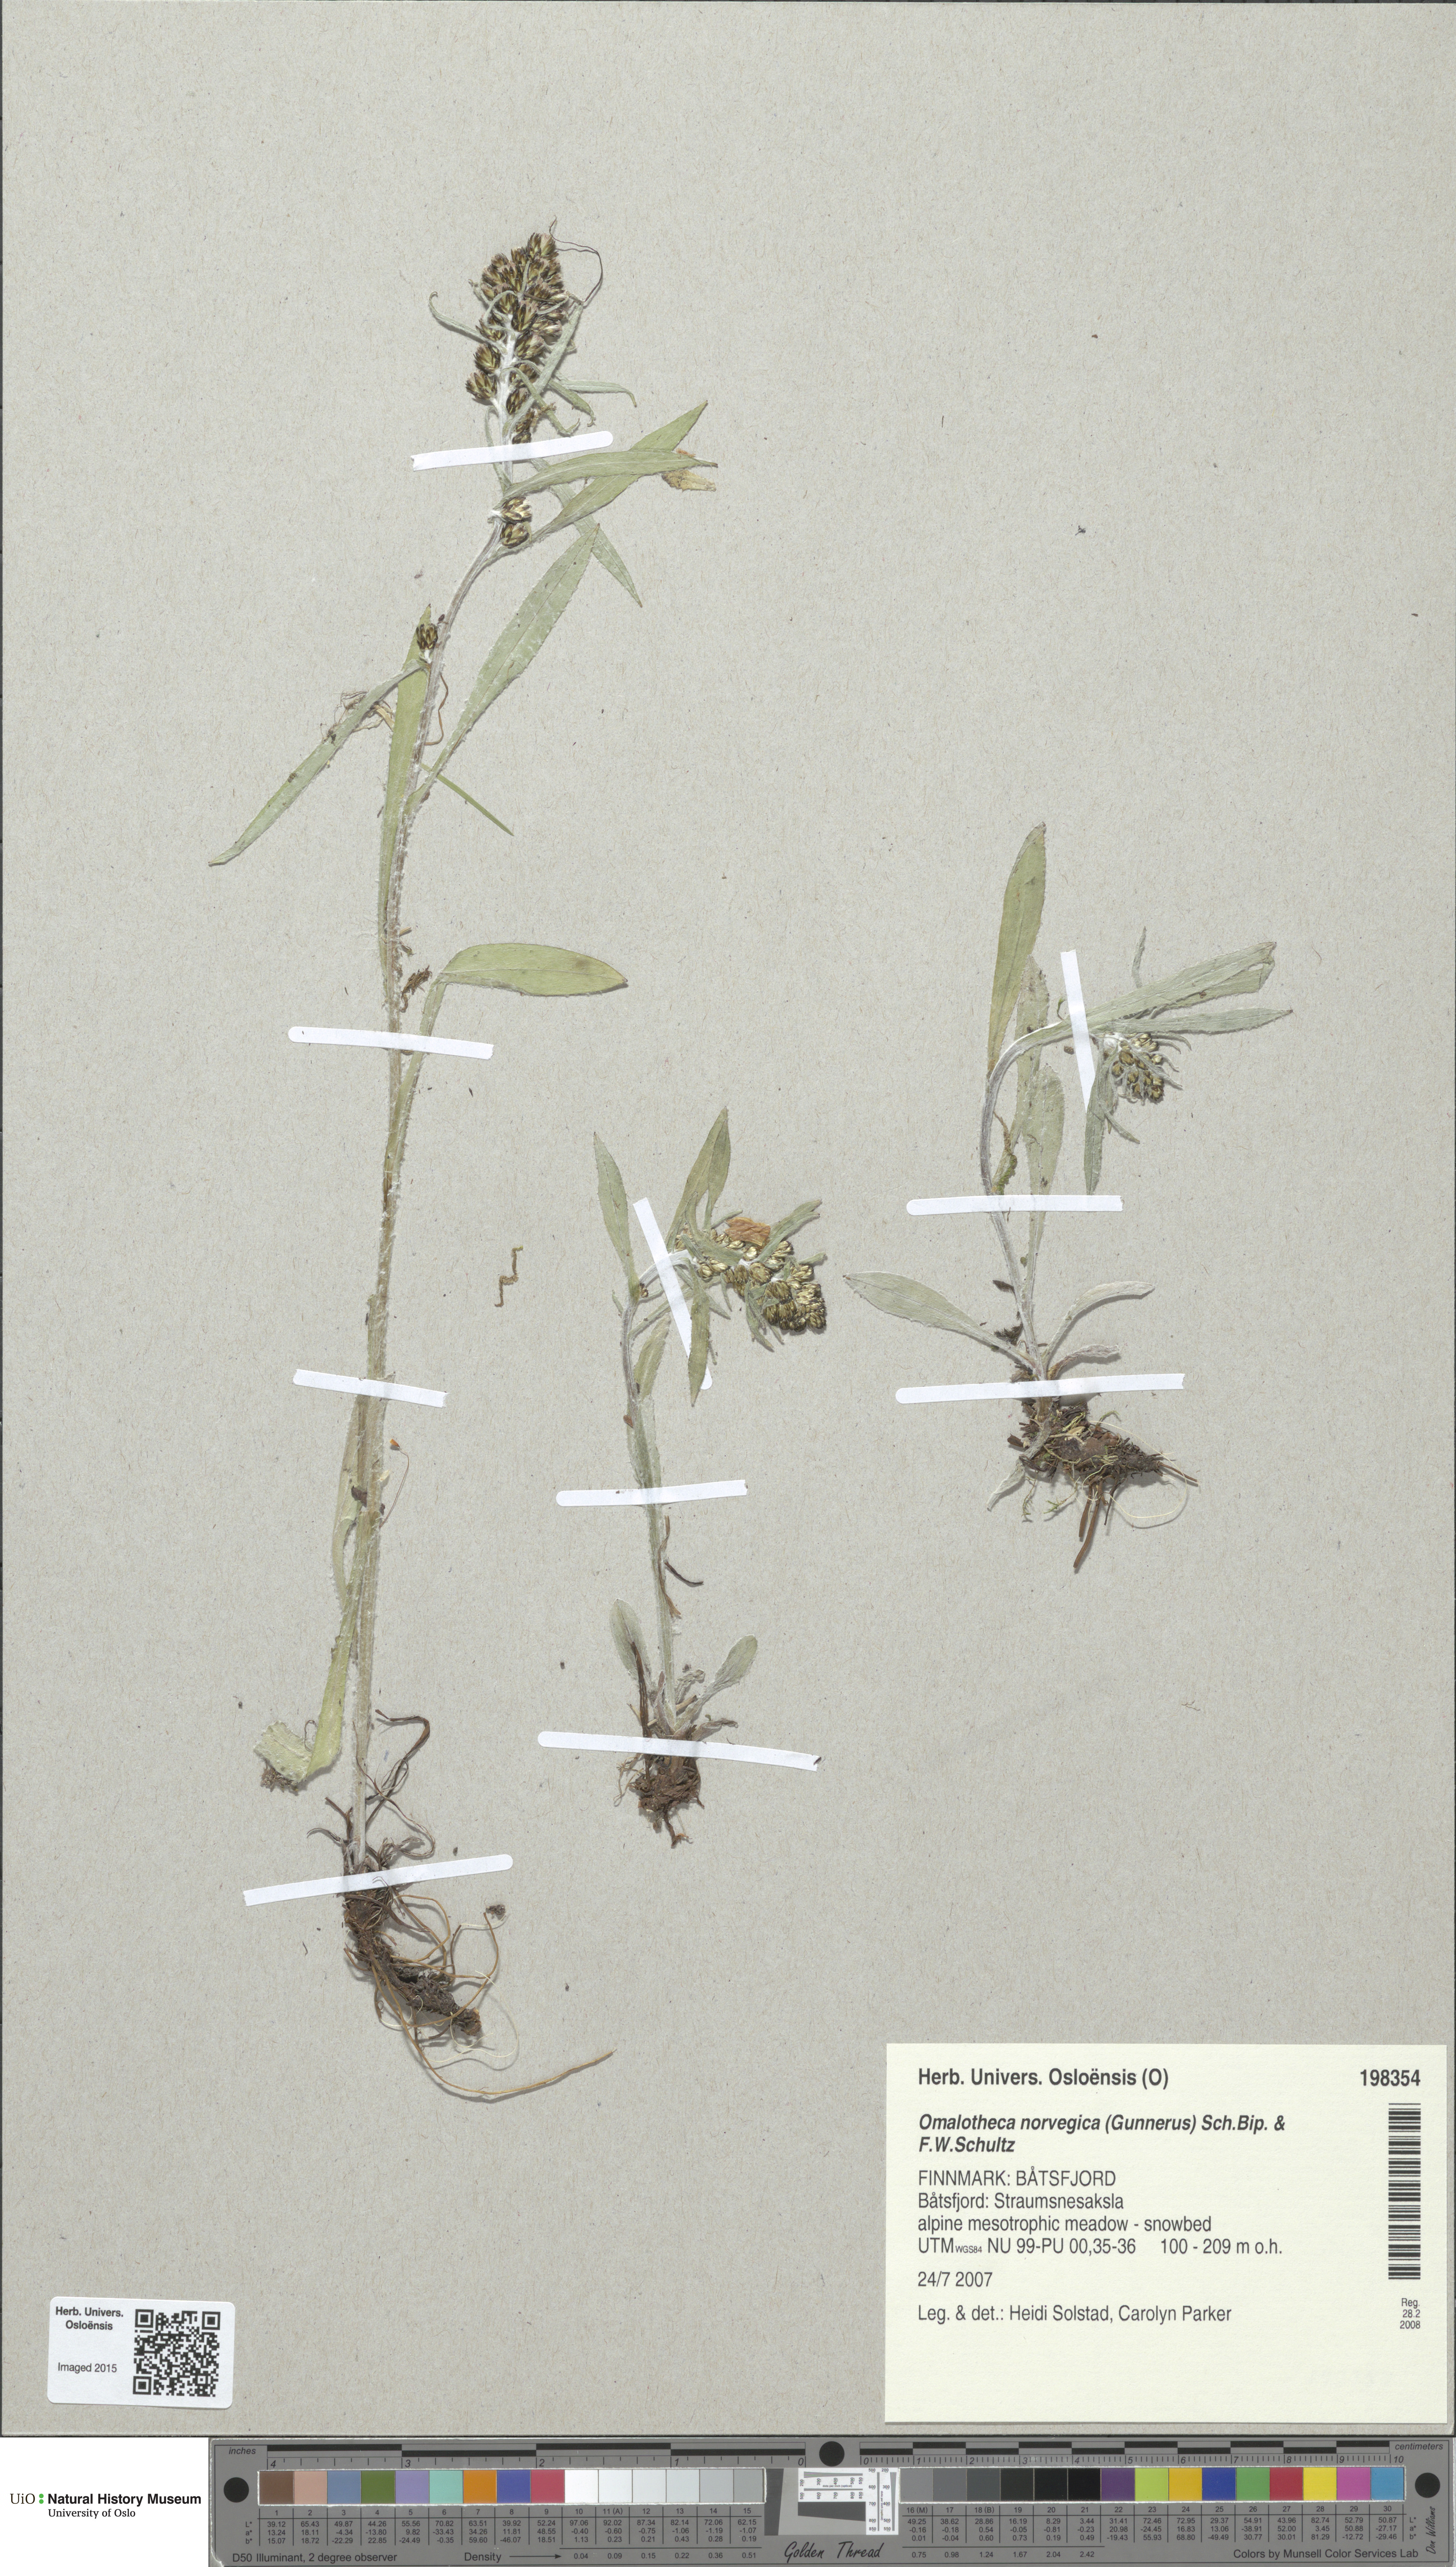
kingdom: Plantae
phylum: Tracheophyta
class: Magnoliopsida
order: Asterales
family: Asteraceae
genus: Omalotheca
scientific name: Omalotheca norvegica
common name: Norwegian arctic-cudweed
